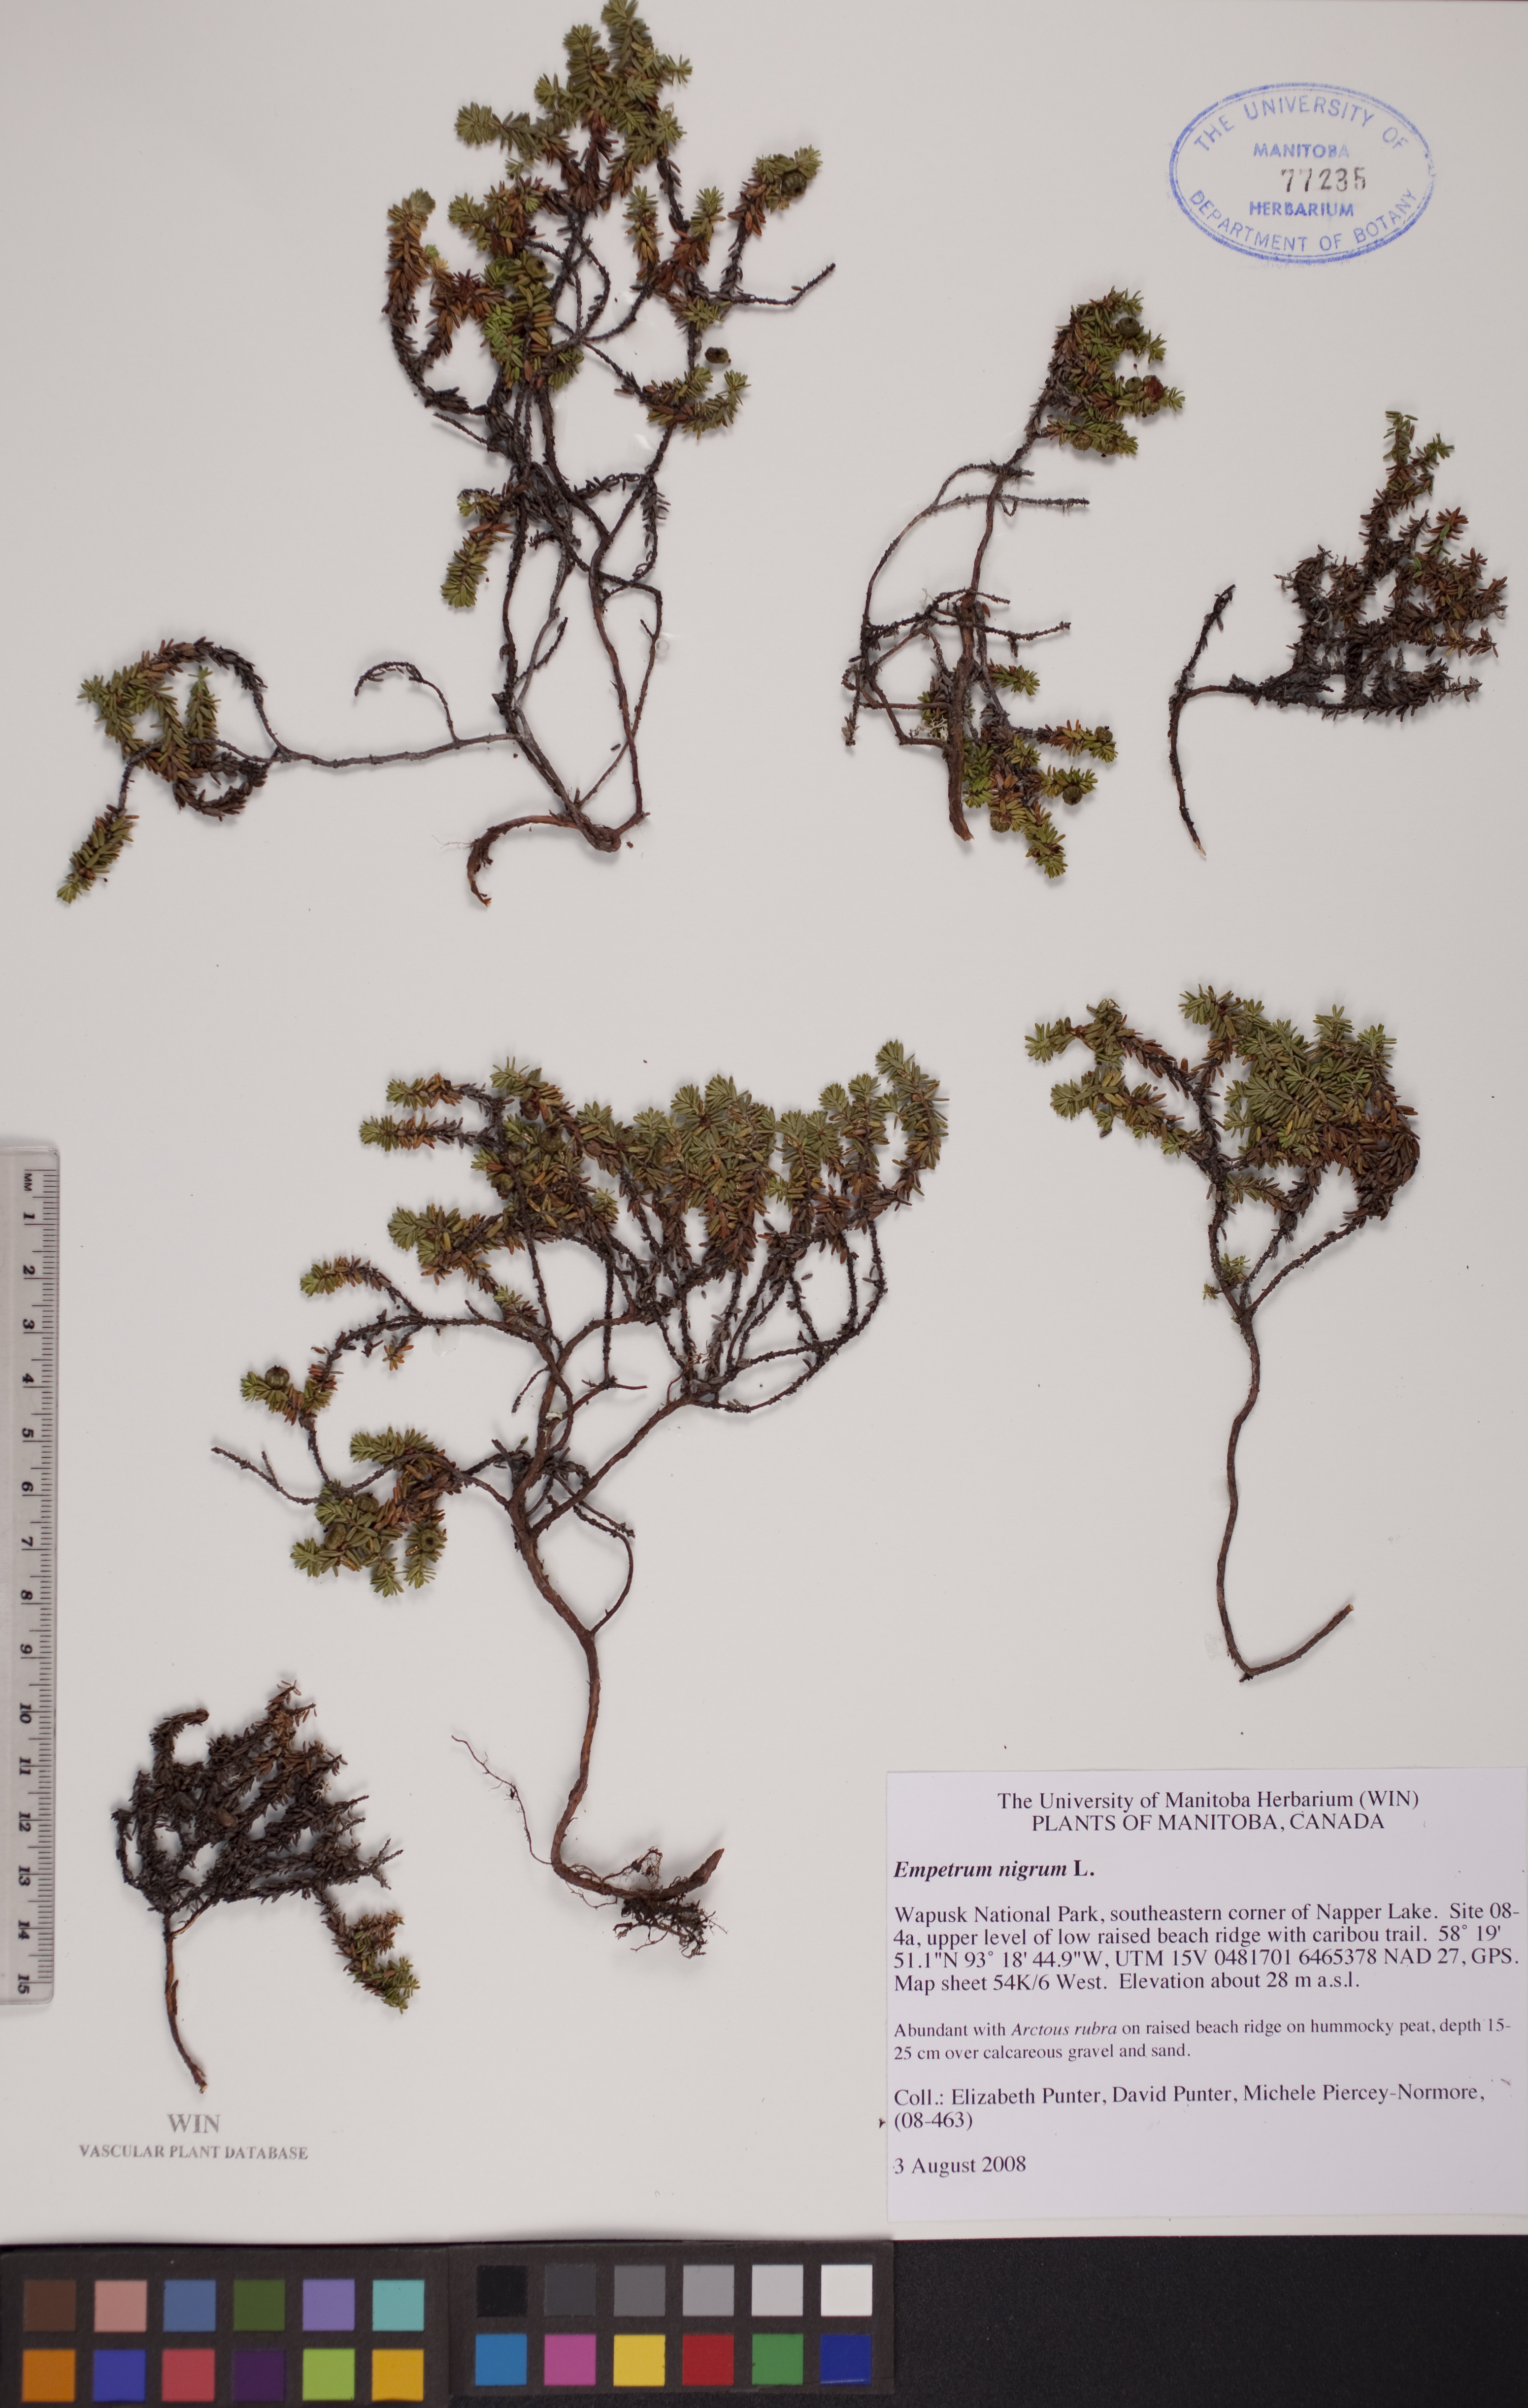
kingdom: Plantae
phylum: Tracheophyta
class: Magnoliopsida
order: Ericales
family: Ericaceae
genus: Empetrum
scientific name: Empetrum nigrum
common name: Black crowberry
